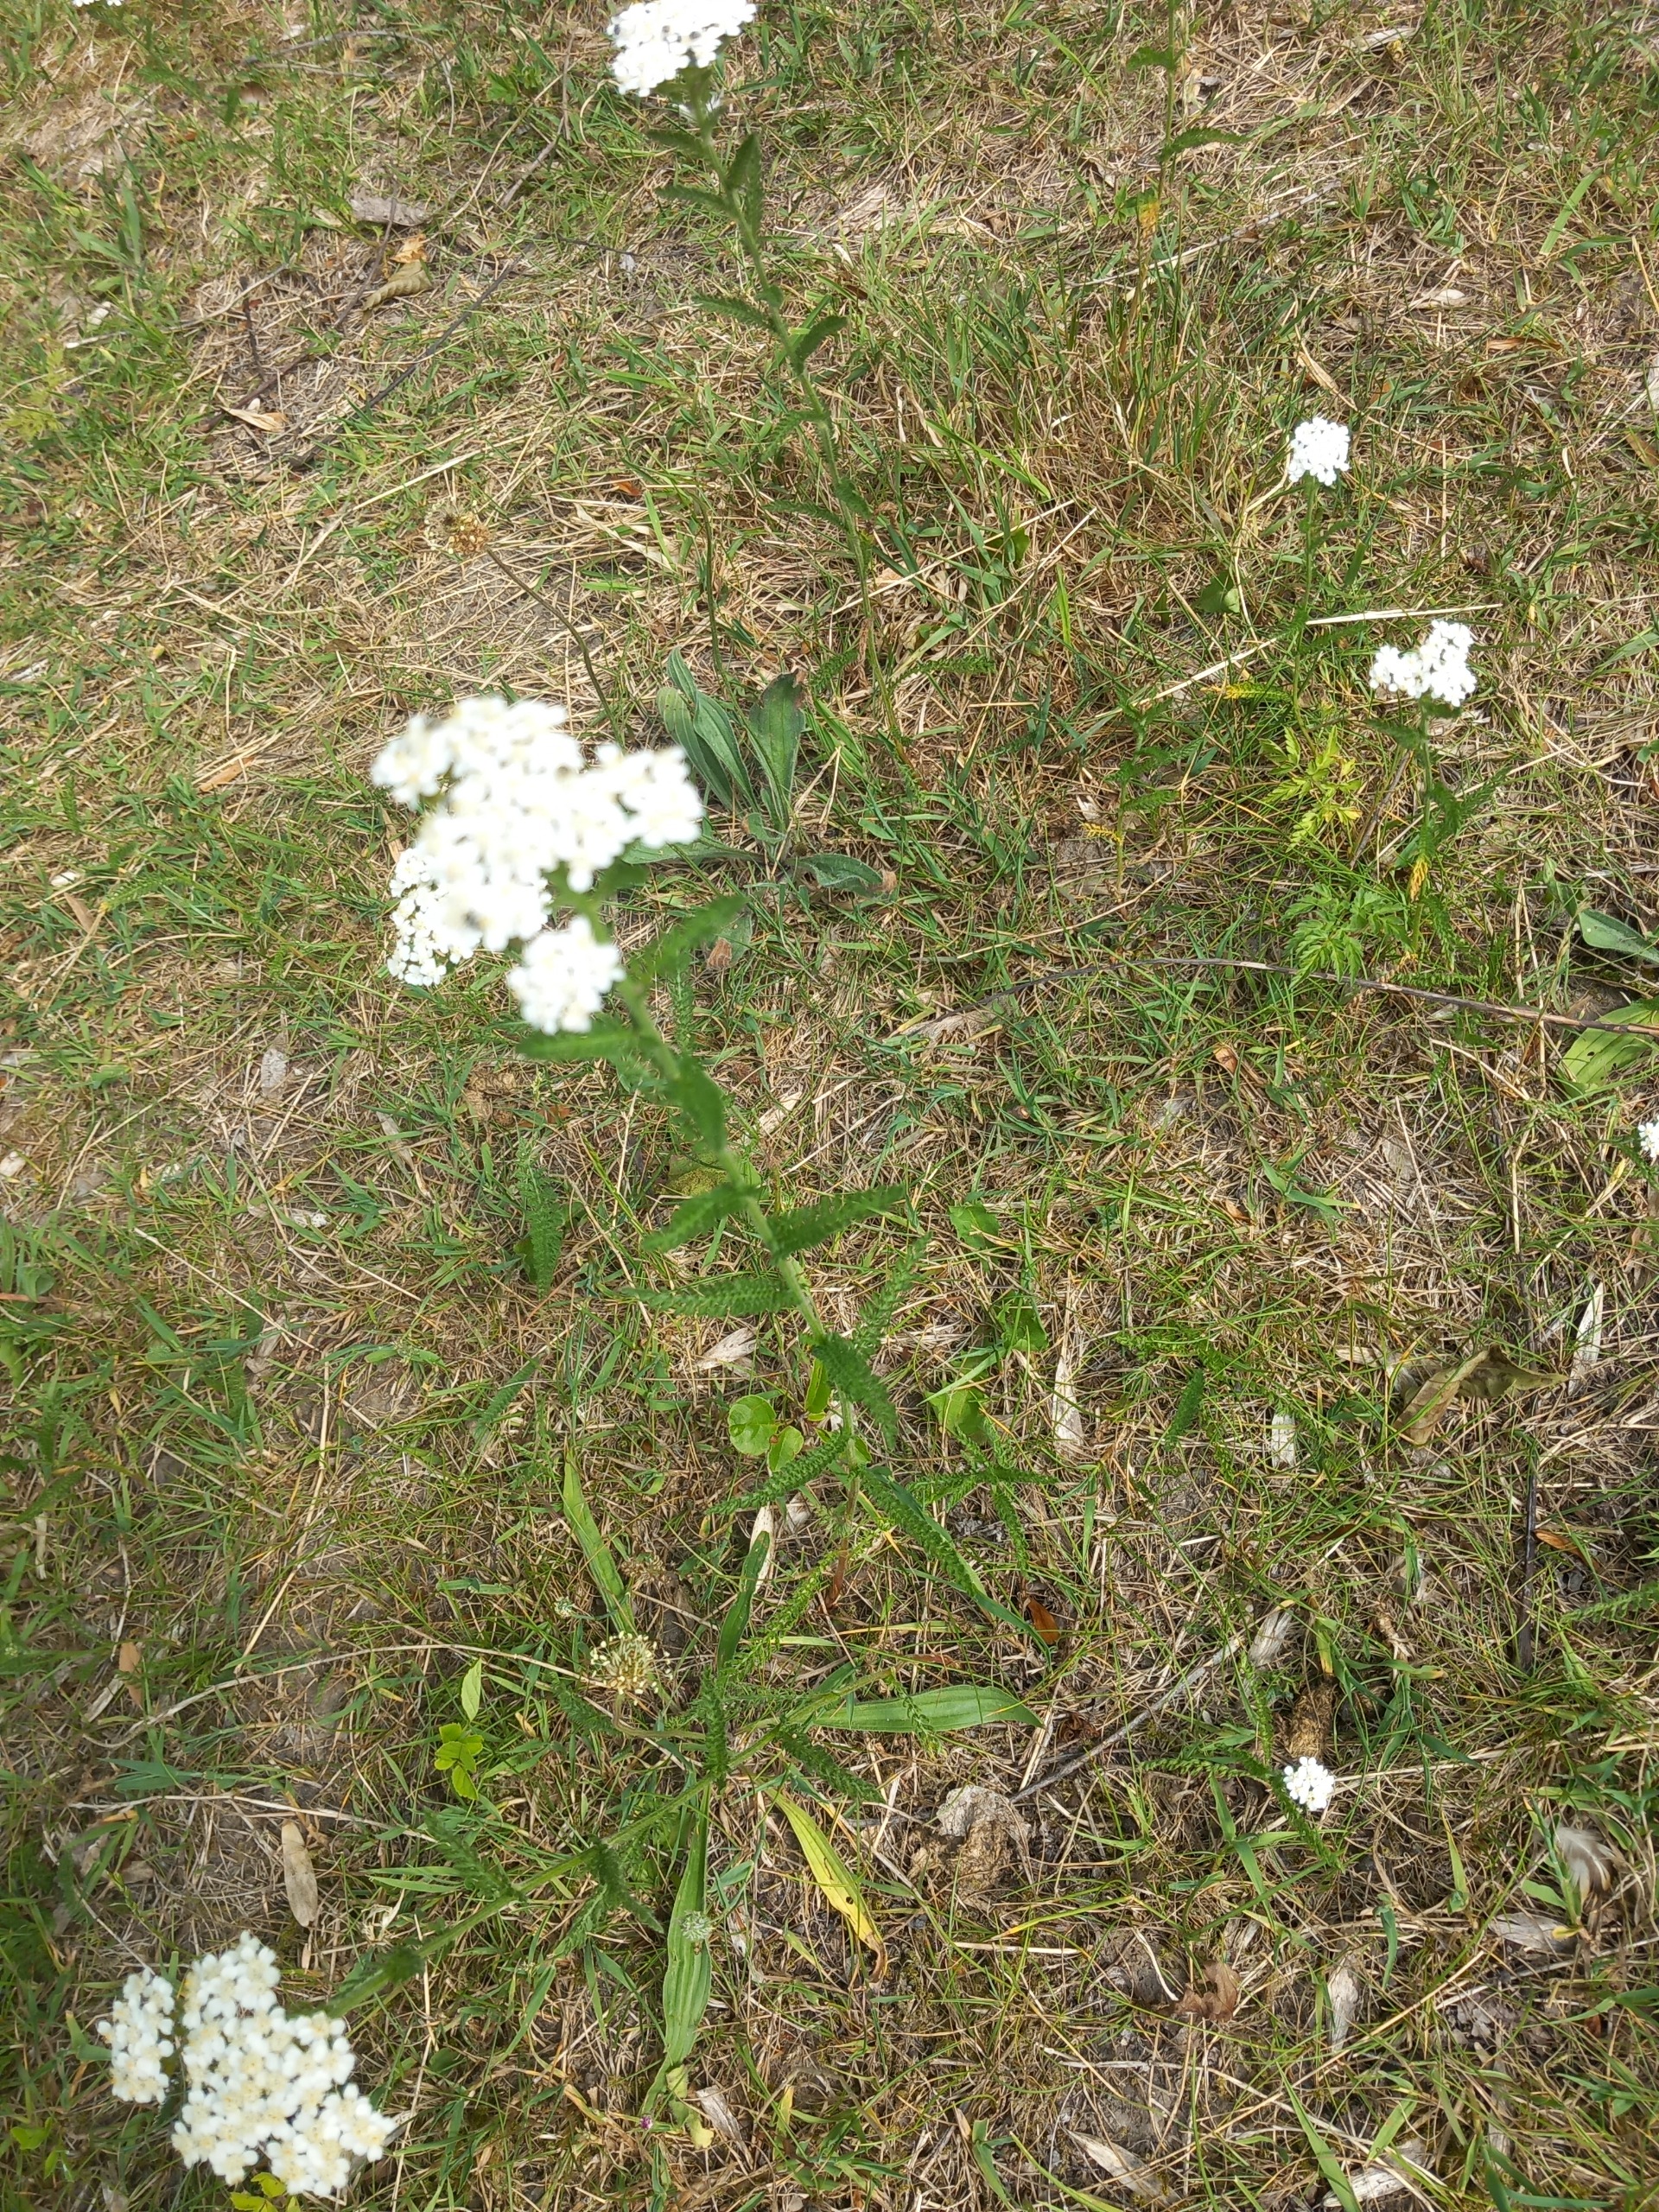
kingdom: Plantae
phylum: Tracheophyta
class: Magnoliopsida
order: Asterales
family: Asteraceae
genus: Achillea
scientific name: Achillea millefolium
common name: Almindelig røllike
